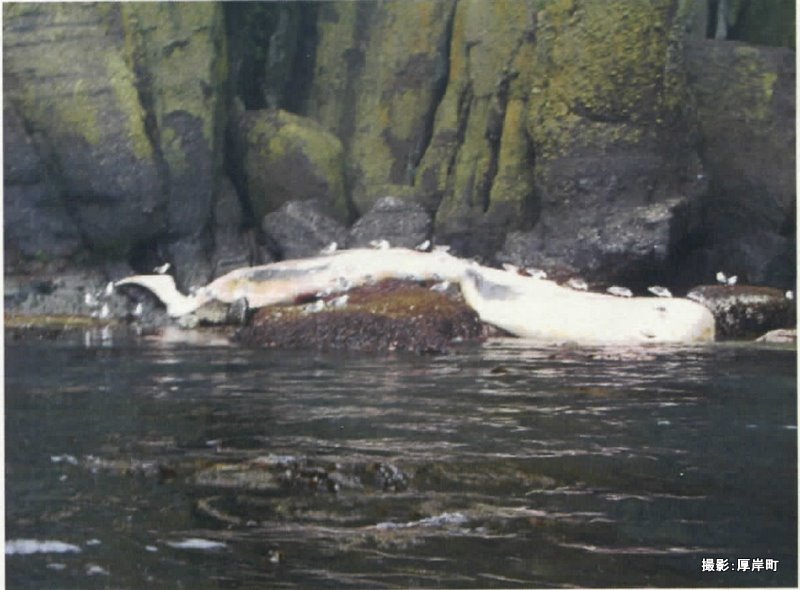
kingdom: Animalia
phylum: Chordata
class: Mammalia
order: Cetacea
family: Physeteridae
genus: Physeter
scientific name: Physeter macrocephalus
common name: Sperm whale
